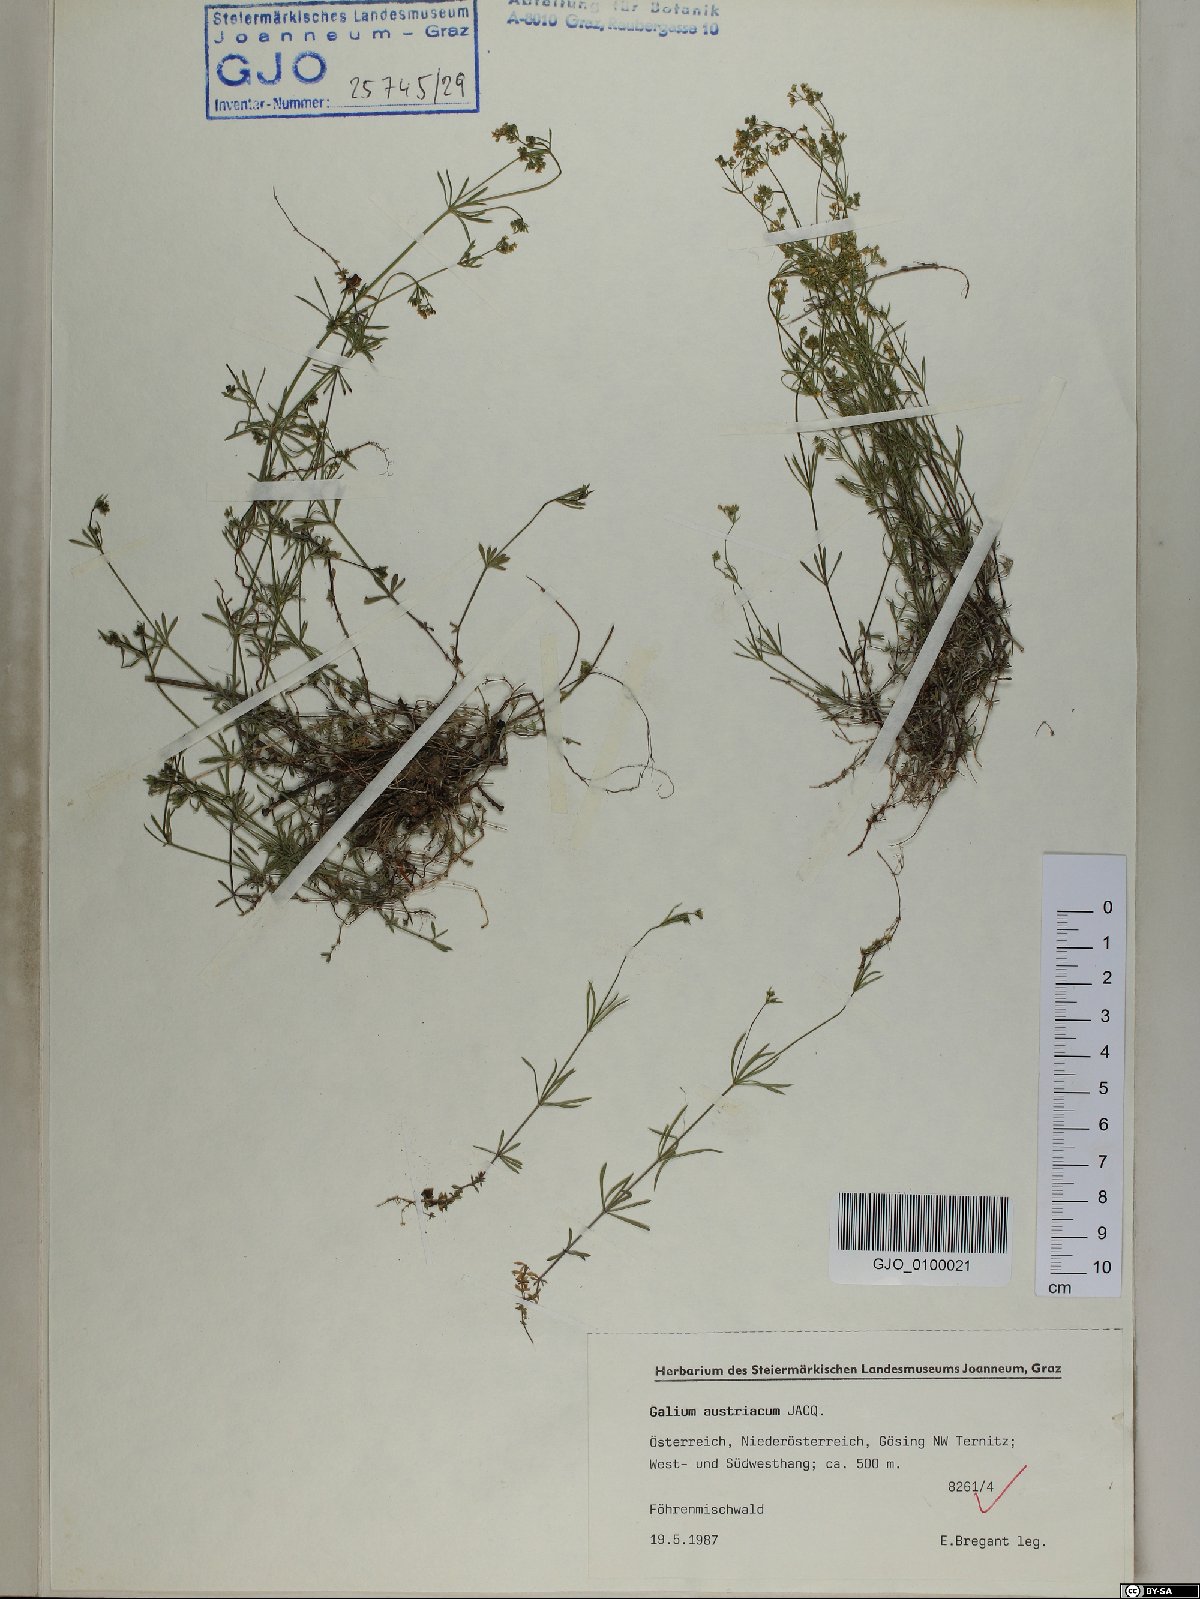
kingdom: Plantae
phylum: Tracheophyta
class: Magnoliopsida
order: Gentianales
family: Rubiaceae
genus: Galium
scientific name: Galium austriacum
